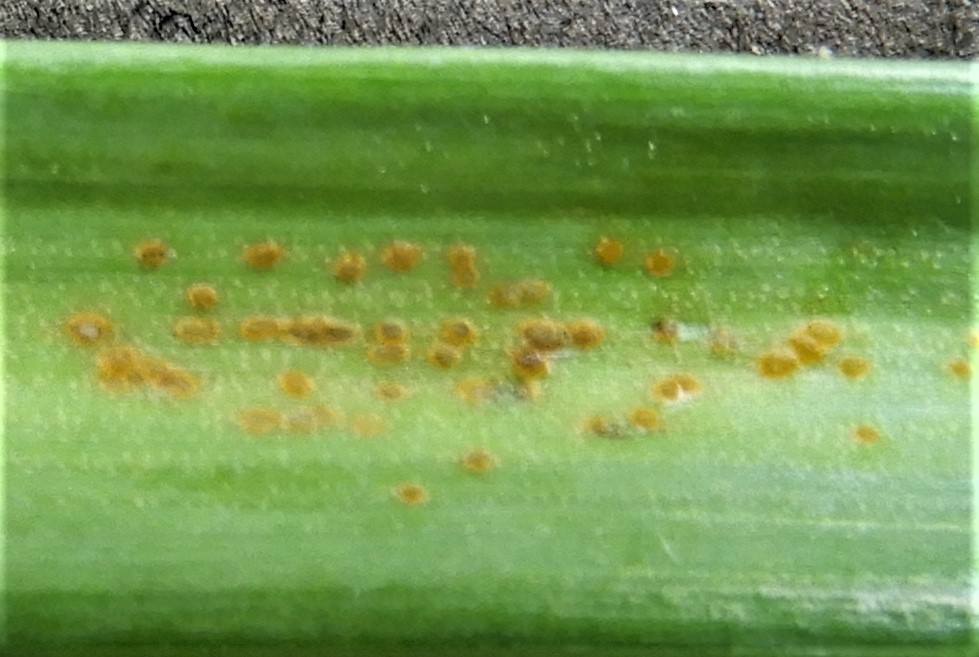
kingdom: Fungi
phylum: Basidiomycota
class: Pucciniomycetes
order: Pucciniales
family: Melampsoraceae
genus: Melampsora
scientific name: Melampsora galanthi-fragilis
